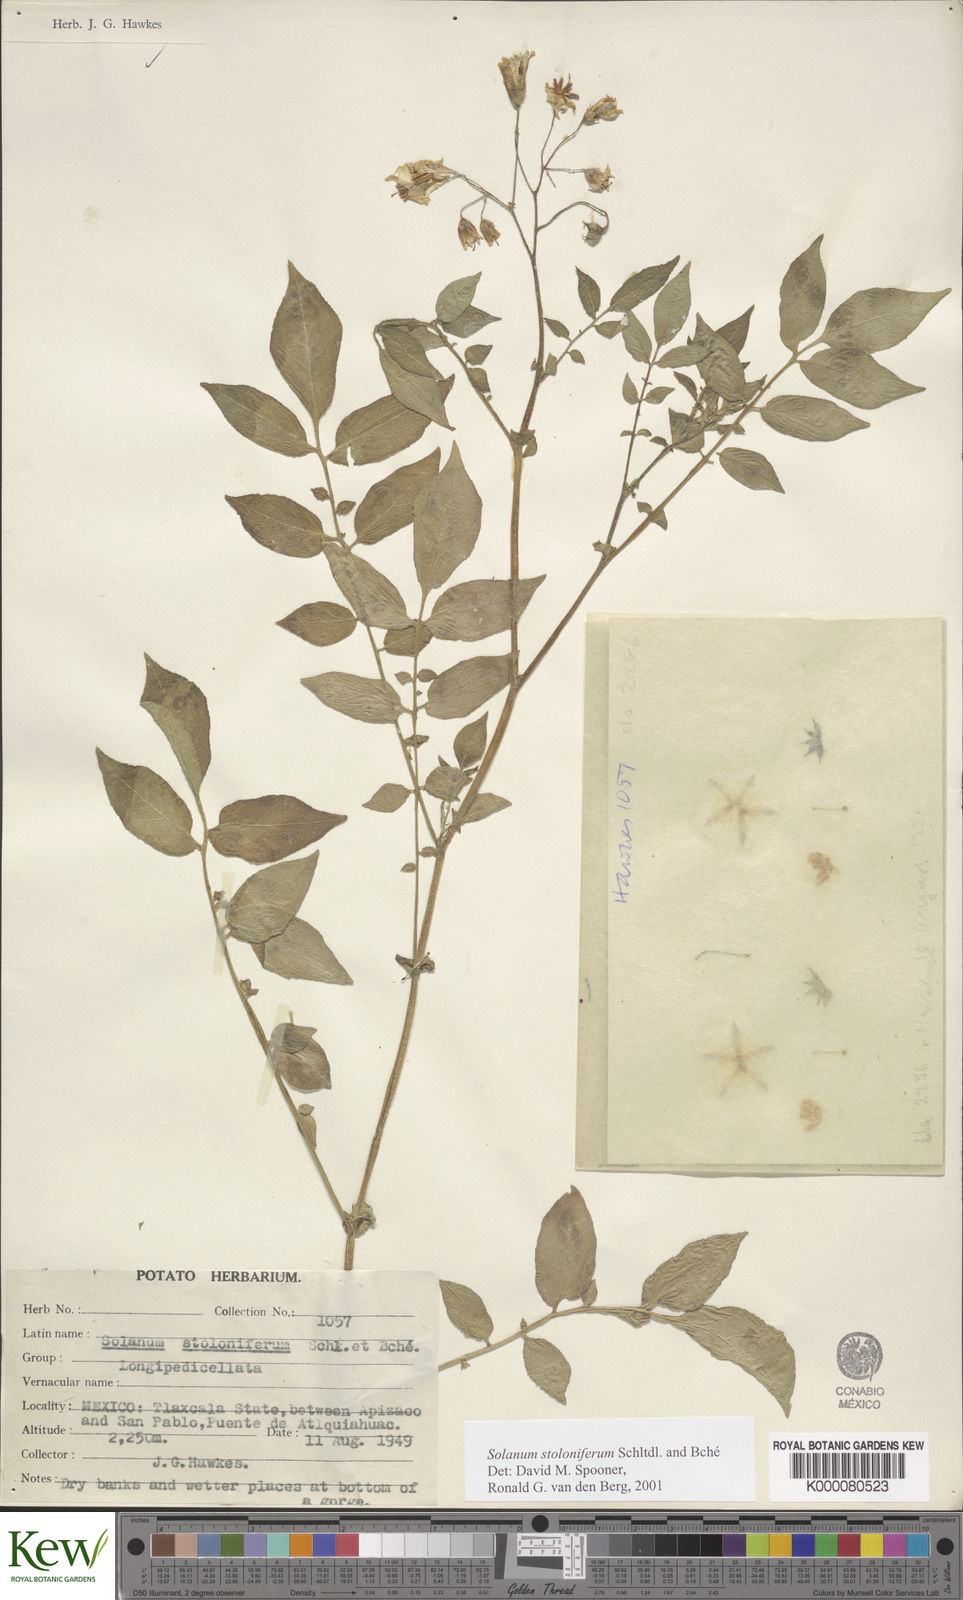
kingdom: Plantae
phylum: Tracheophyta
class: Magnoliopsida
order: Solanales
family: Solanaceae
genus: Solanum
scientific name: Solanum stoloniferum
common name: Fendler's nighshade
